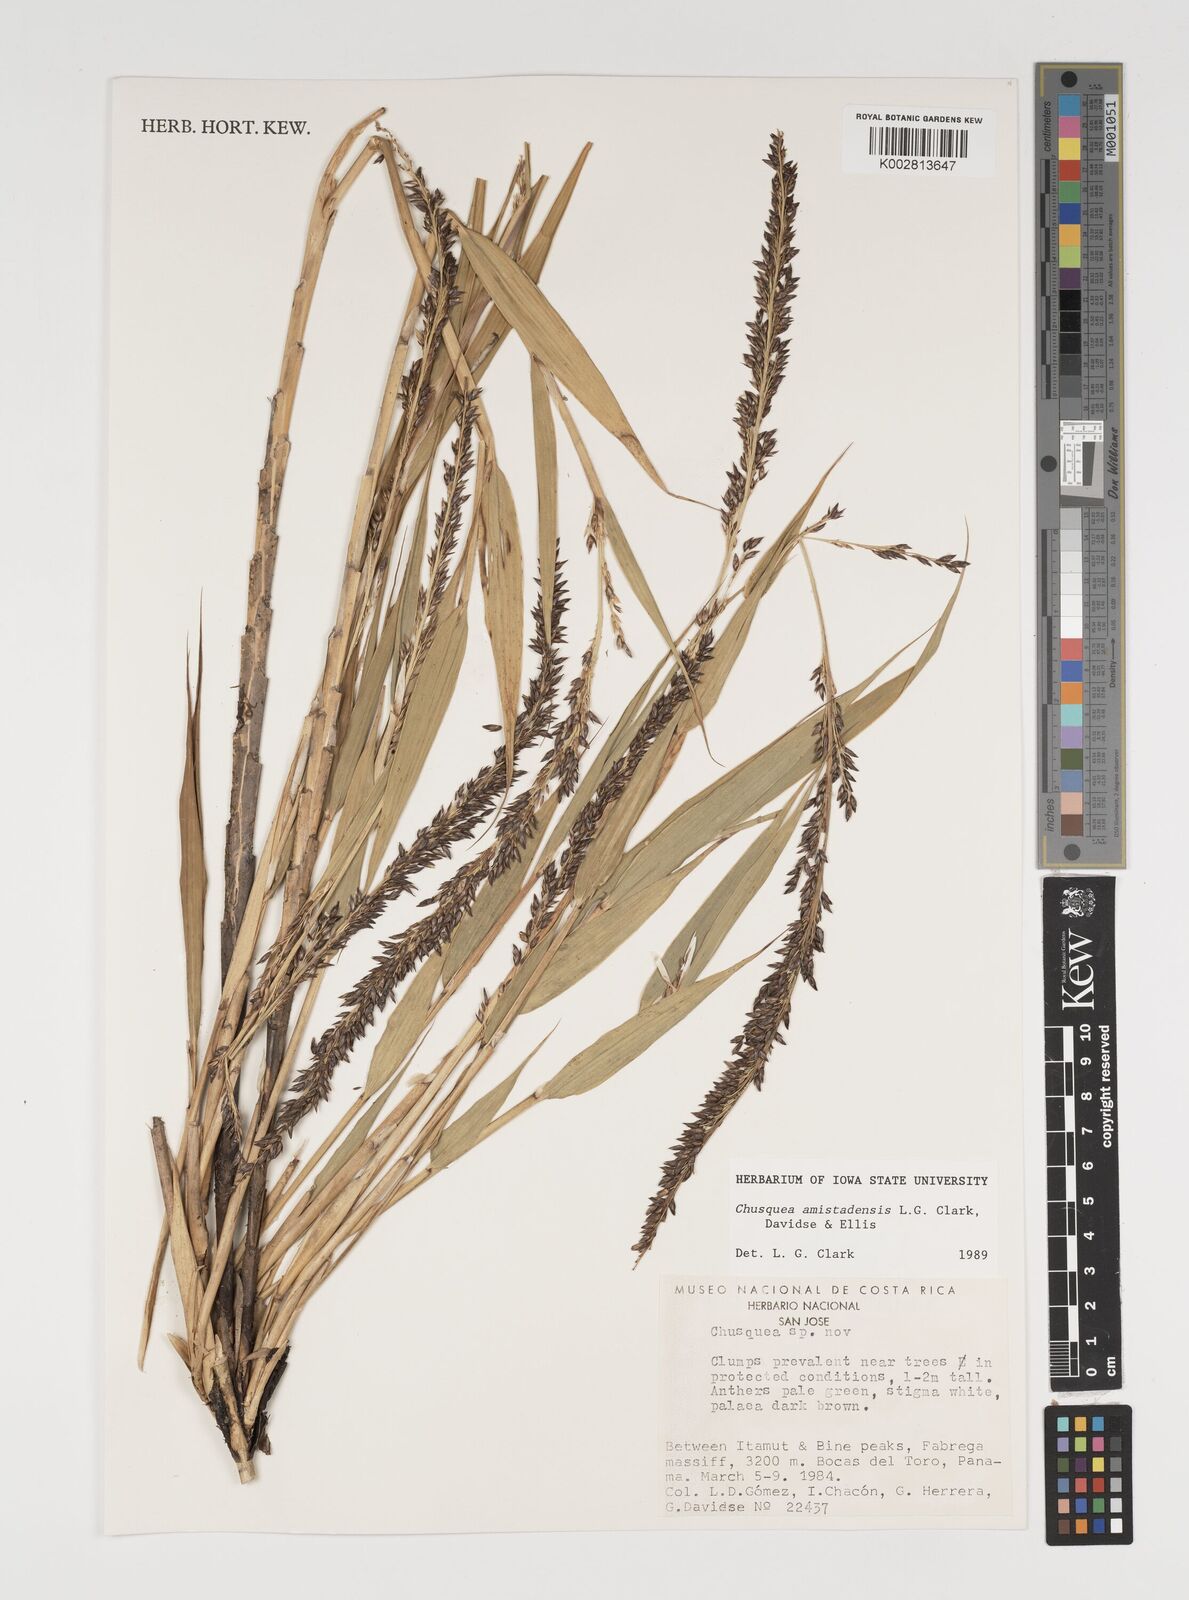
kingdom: Plantae
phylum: Tracheophyta
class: Liliopsida
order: Poales
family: Poaceae
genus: Chusquea
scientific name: Chusquea amistadensis
